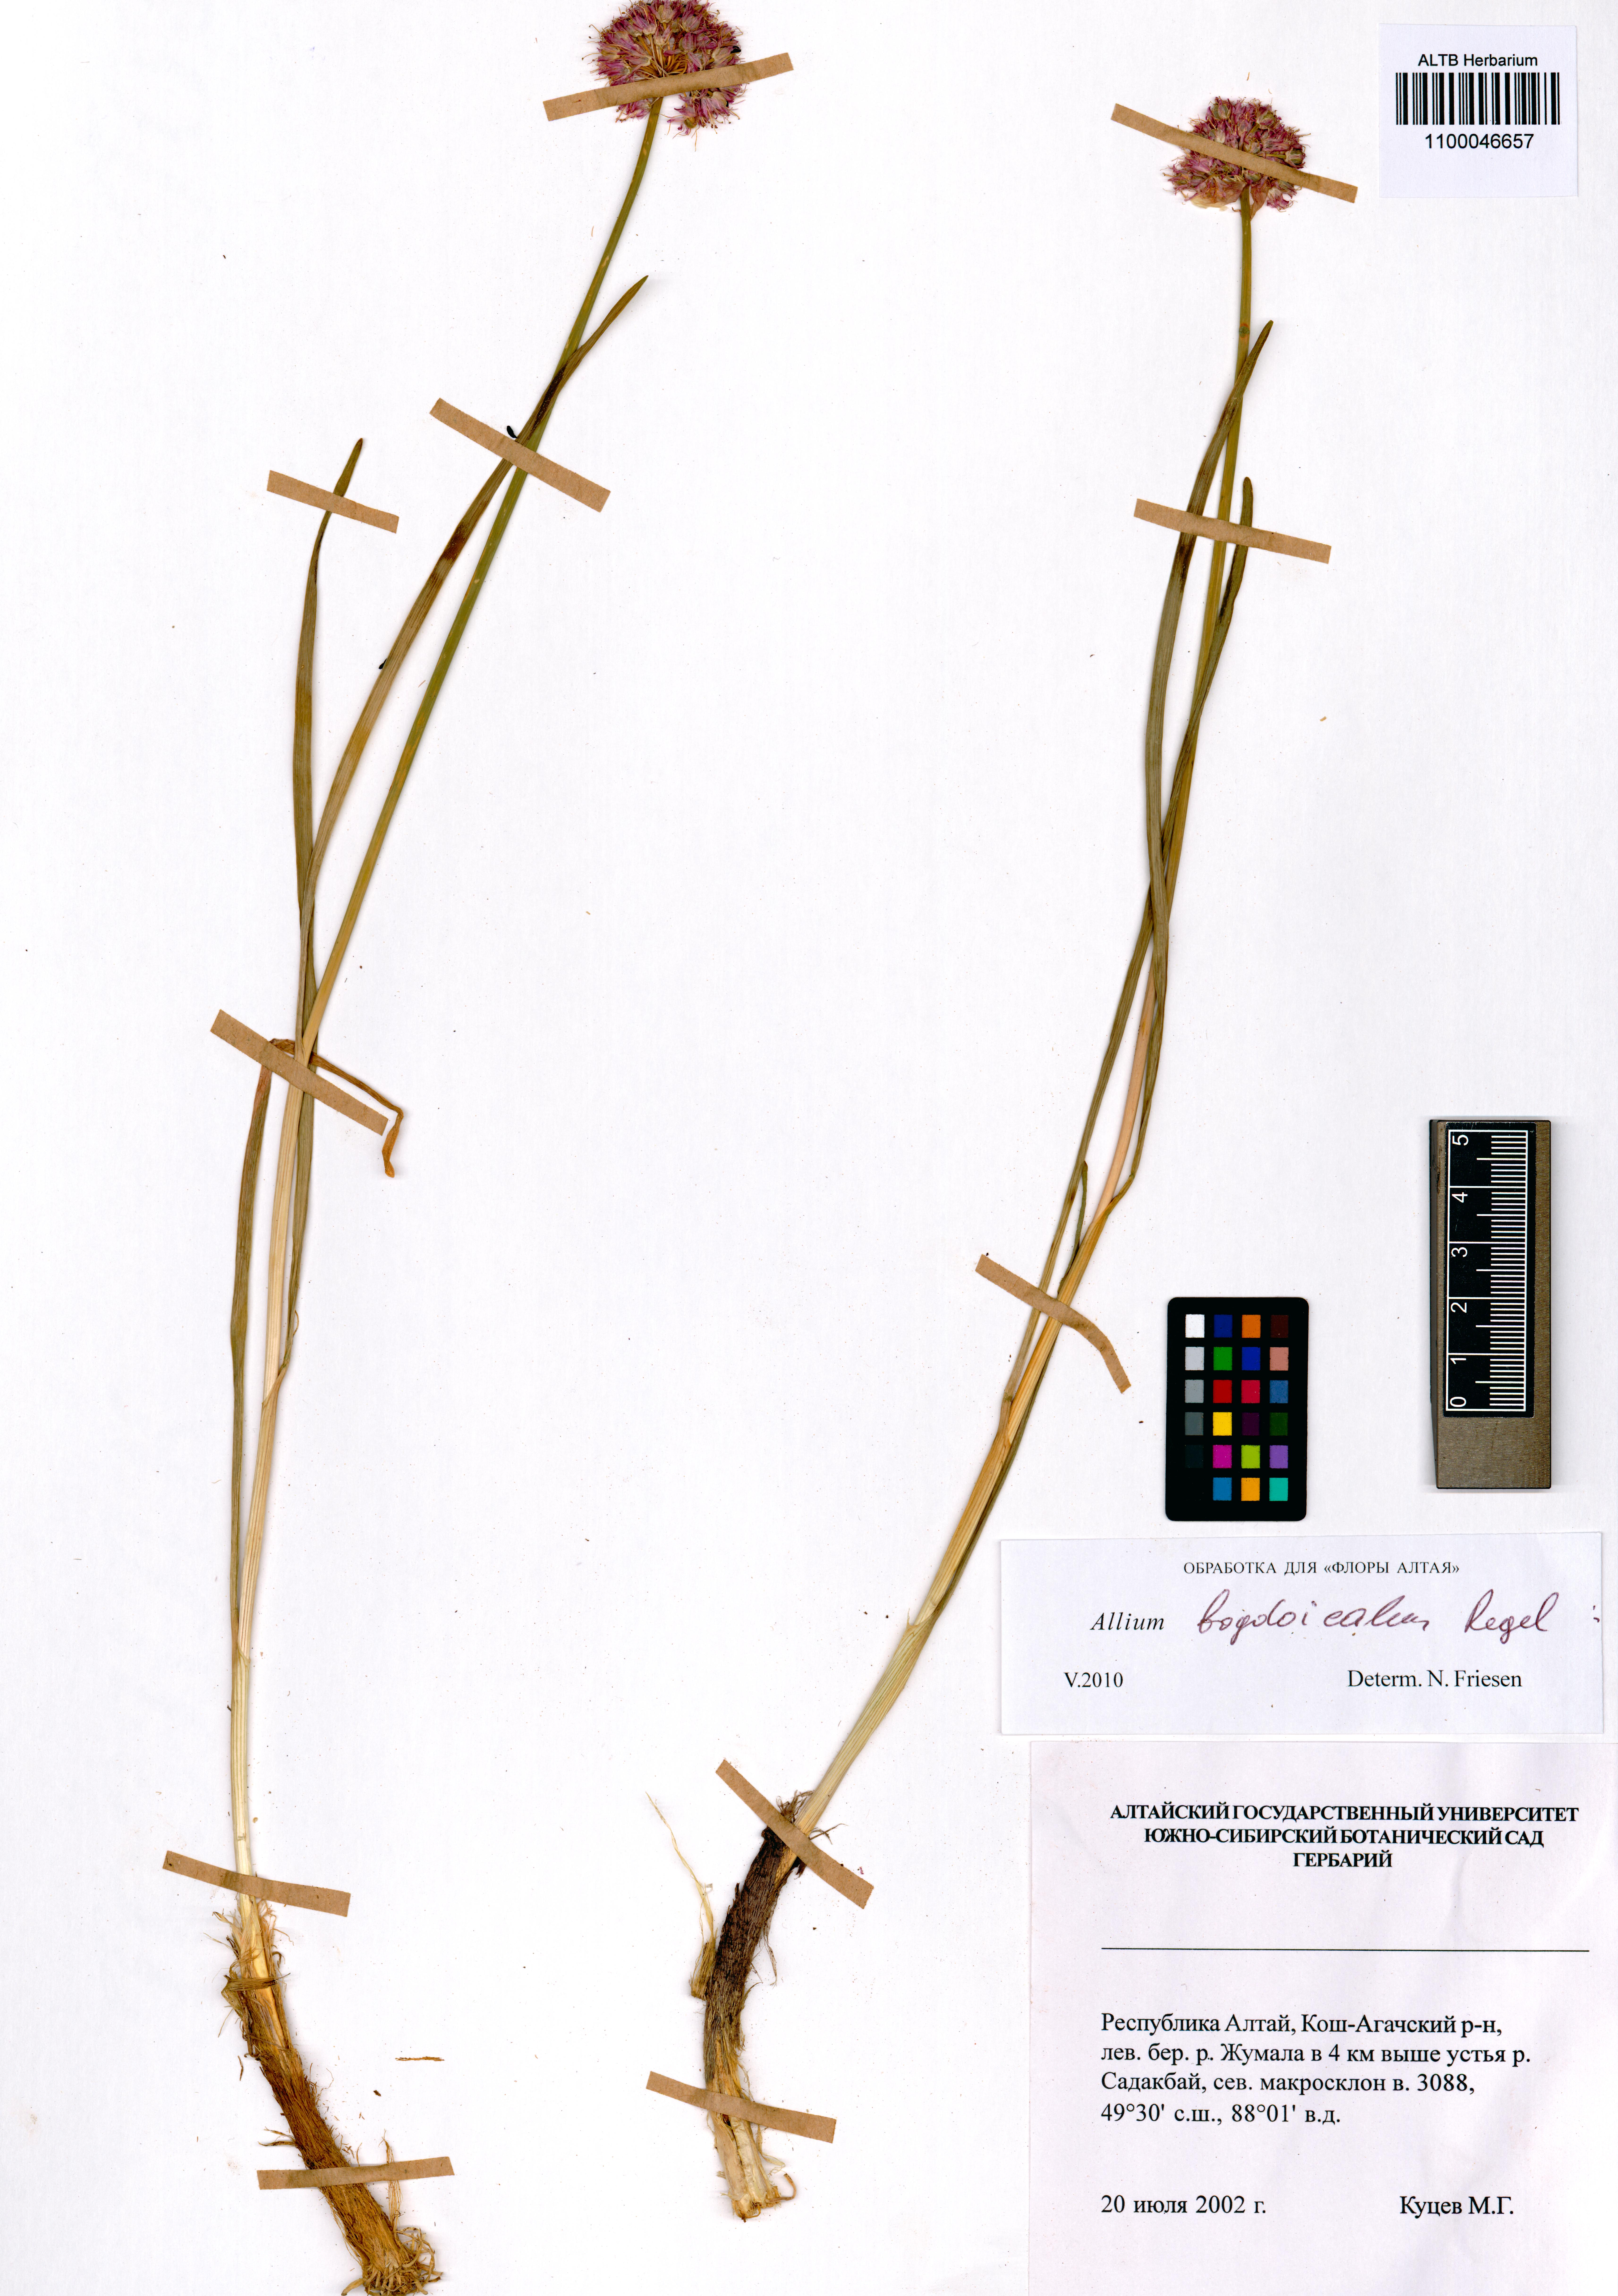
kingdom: Plantae
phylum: Tracheophyta
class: Liliopsida
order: Asparagales
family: Amaryllidaceae
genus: Allium
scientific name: Allium schrenkii
